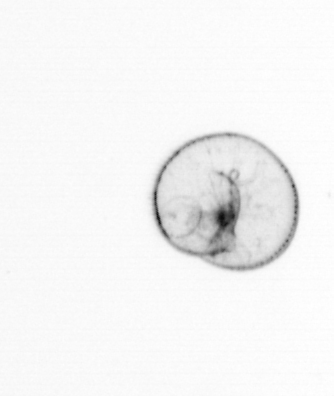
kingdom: Chromista
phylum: Myzozoa
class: Dinophyceae
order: Noctilucales
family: Noctilucaceae
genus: Noctiluca
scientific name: Noctiluca scintillans
